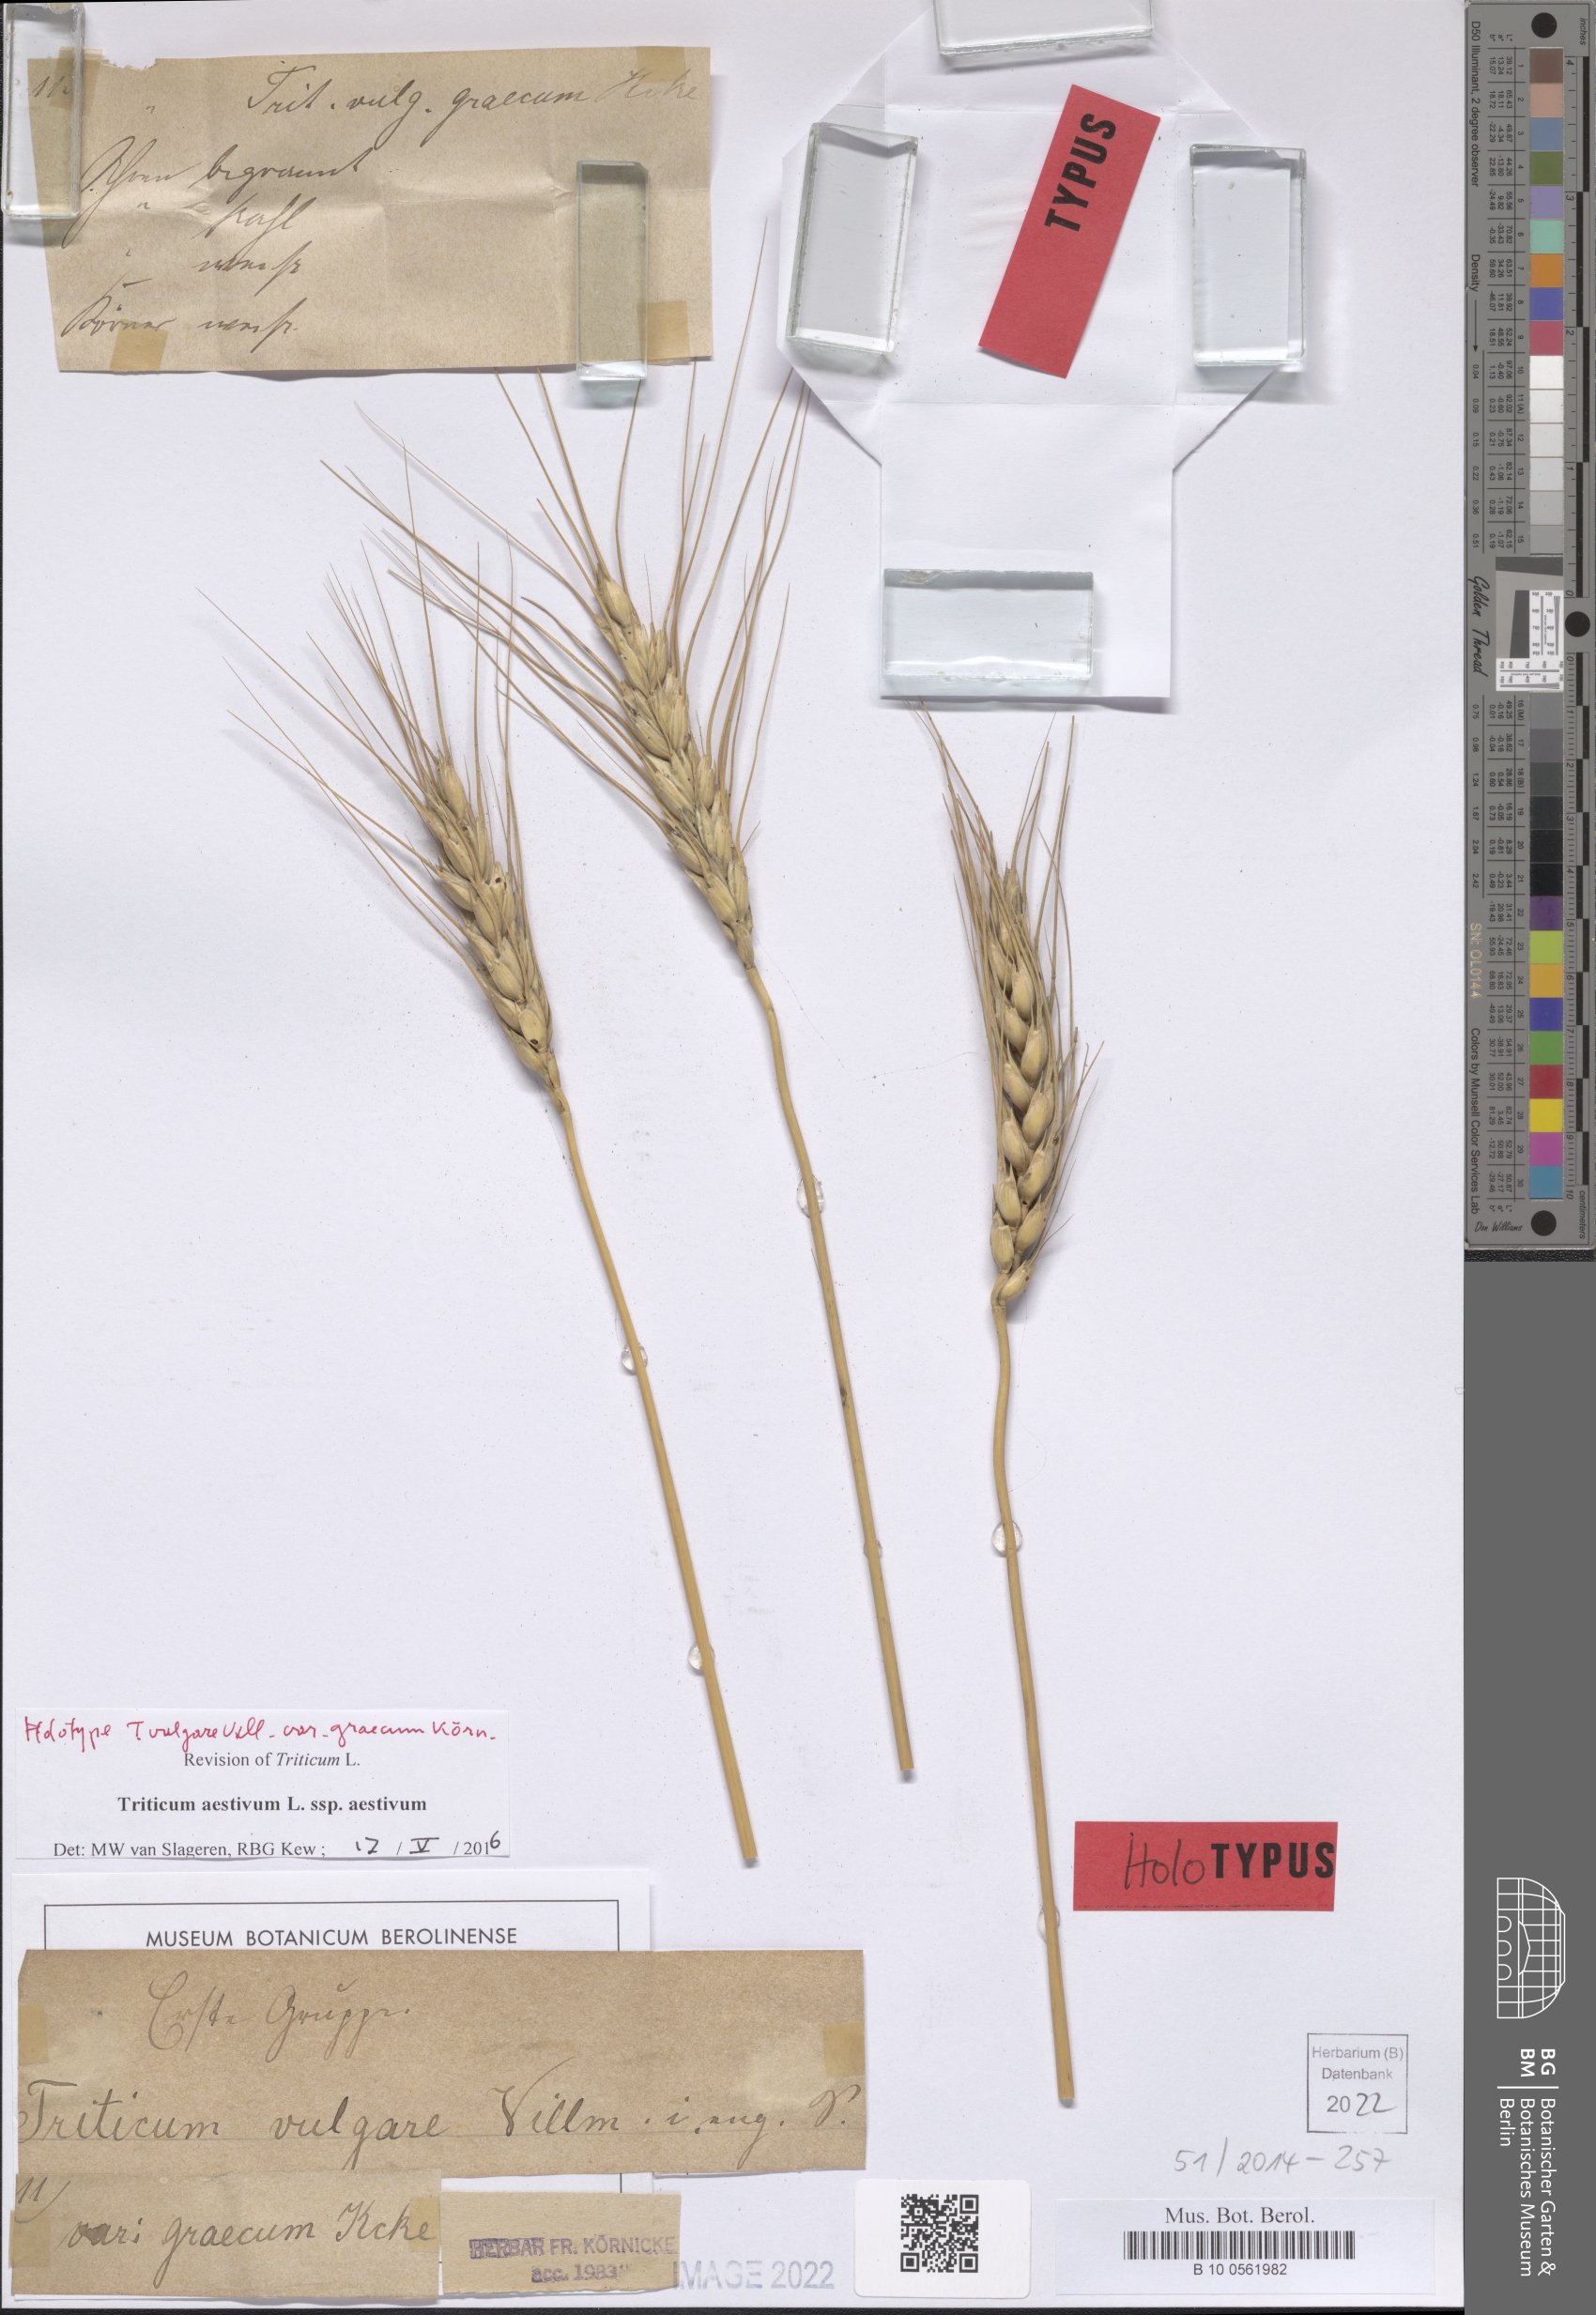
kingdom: Plantae
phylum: Tracheophyta
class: Liliopsida
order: Poales
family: Poaceae
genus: Triticum
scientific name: Triticum aestivum
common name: Common wheat
